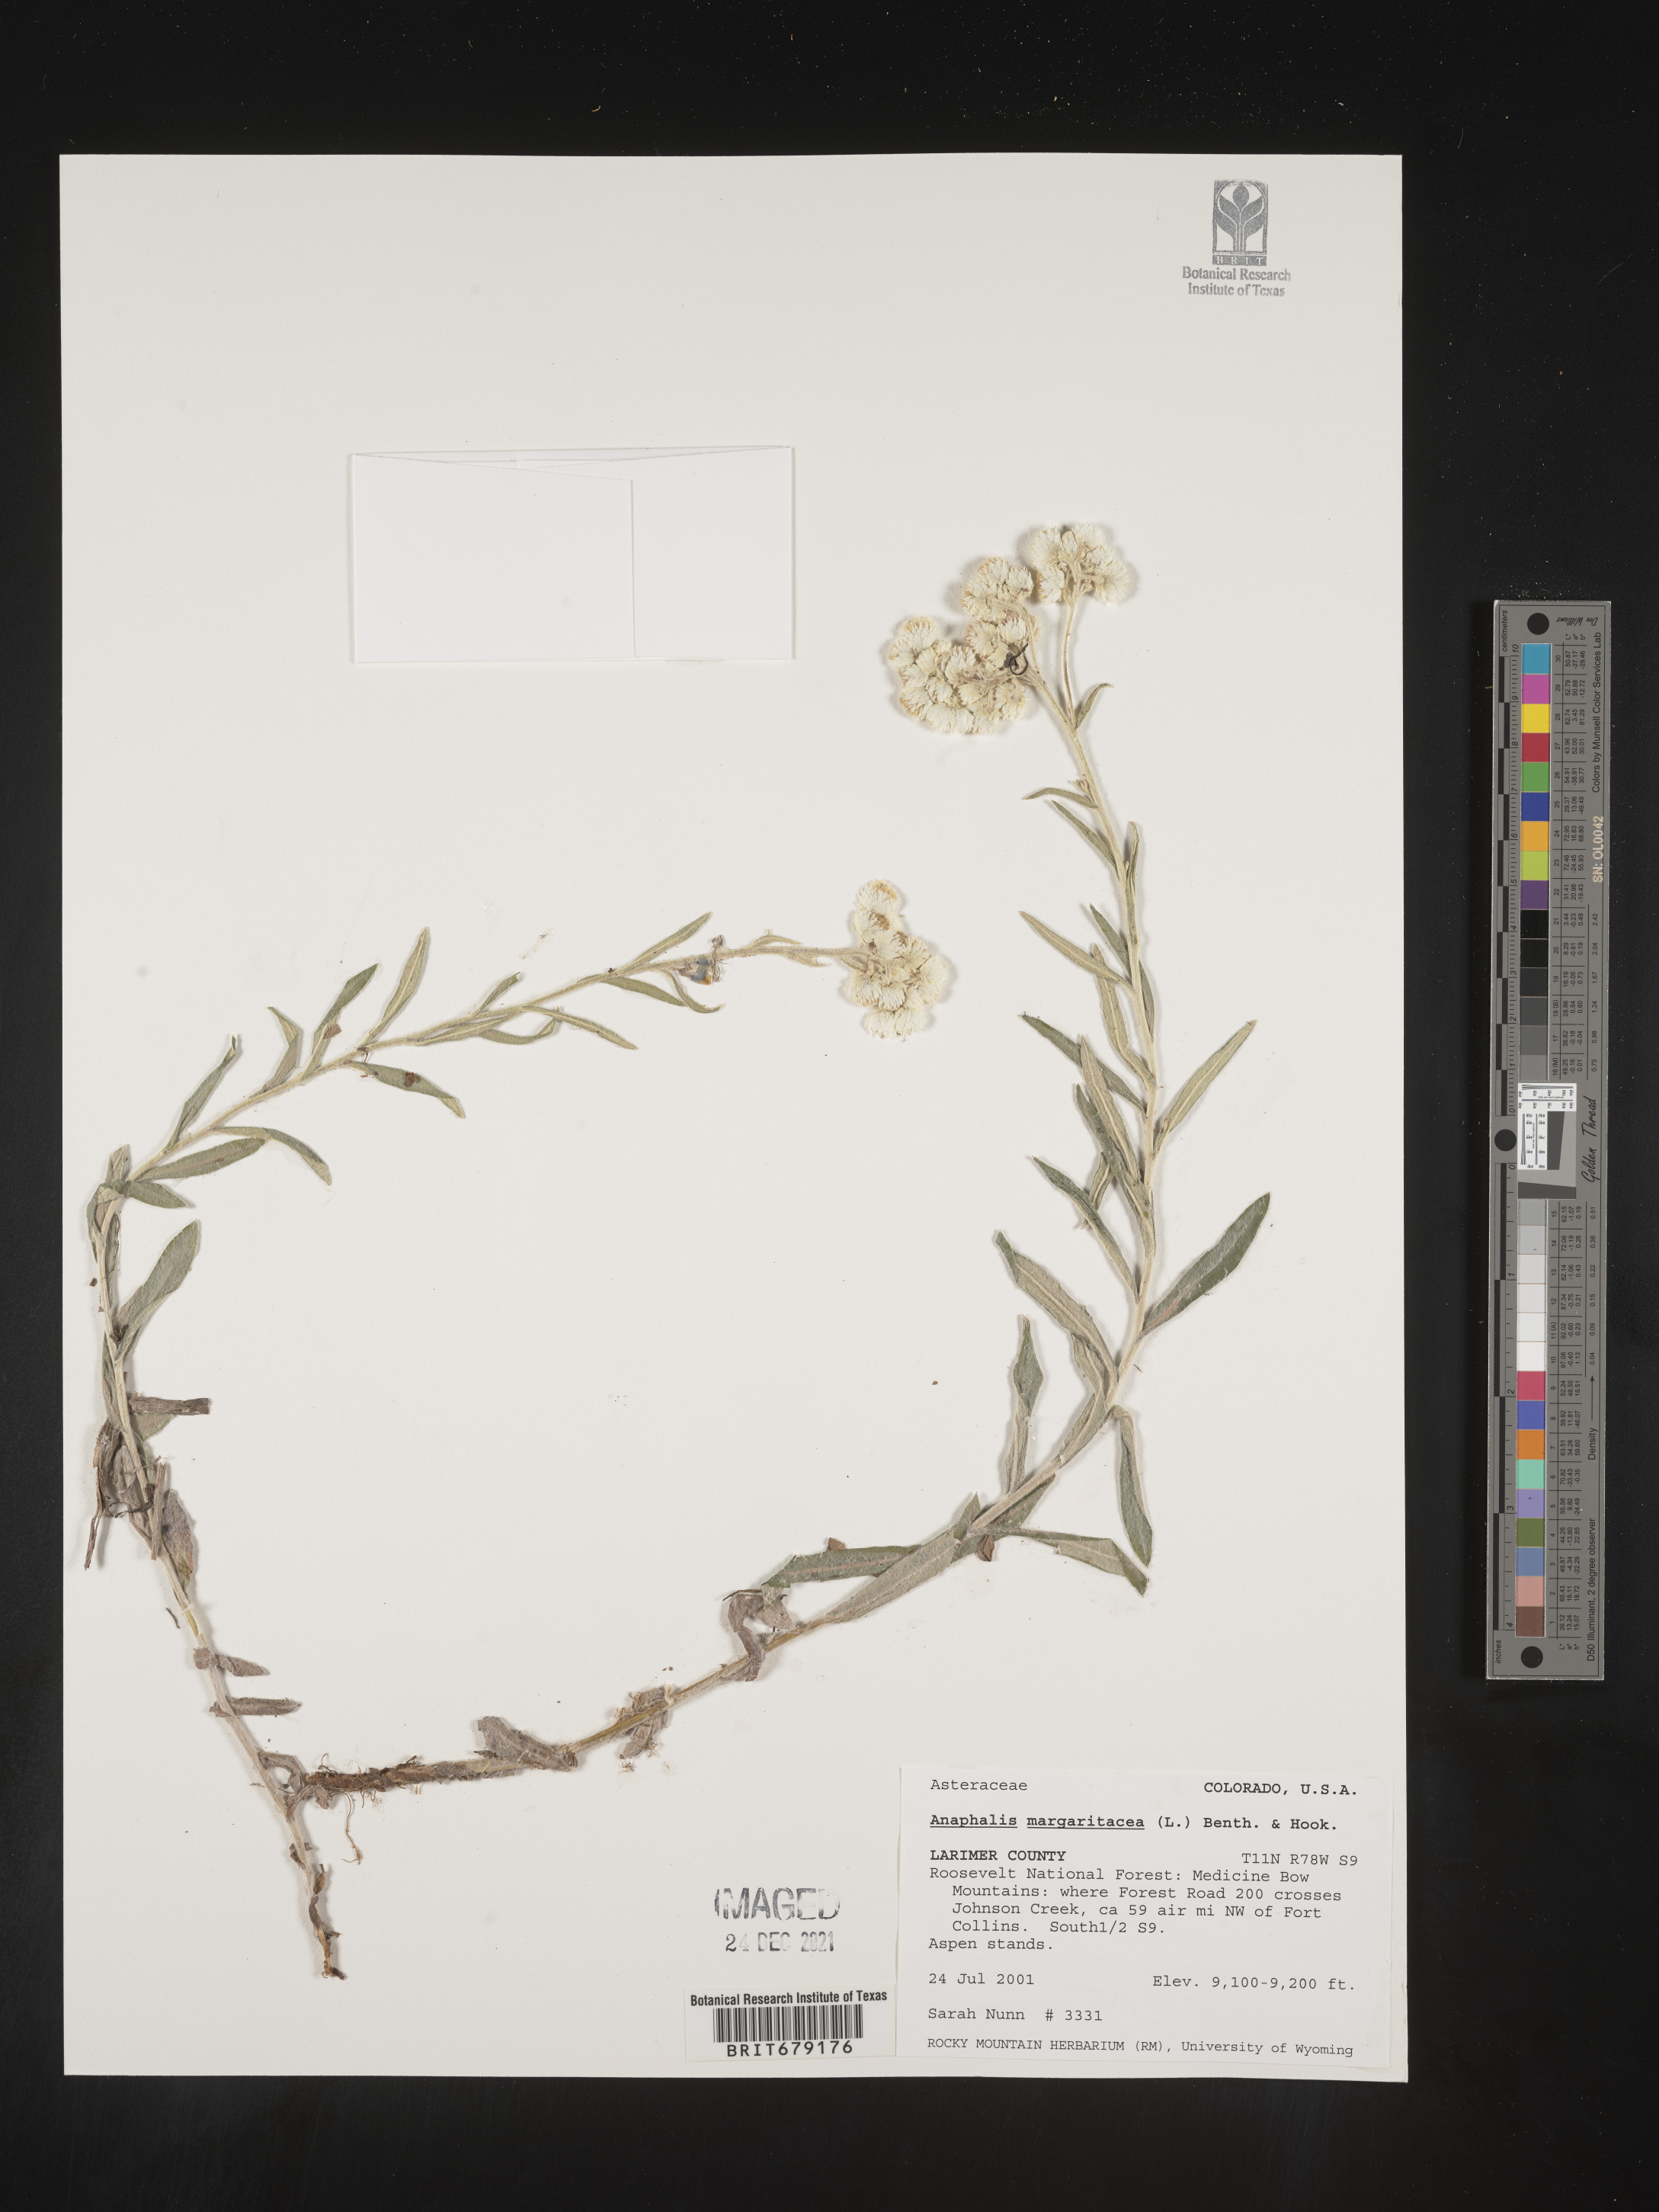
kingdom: Plantae
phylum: Tracheophyta
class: Magnoliopsida
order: Asterales
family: Asteraceae
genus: Anaphalis
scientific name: Anaphalis margaritacea
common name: Pearly everlasting
